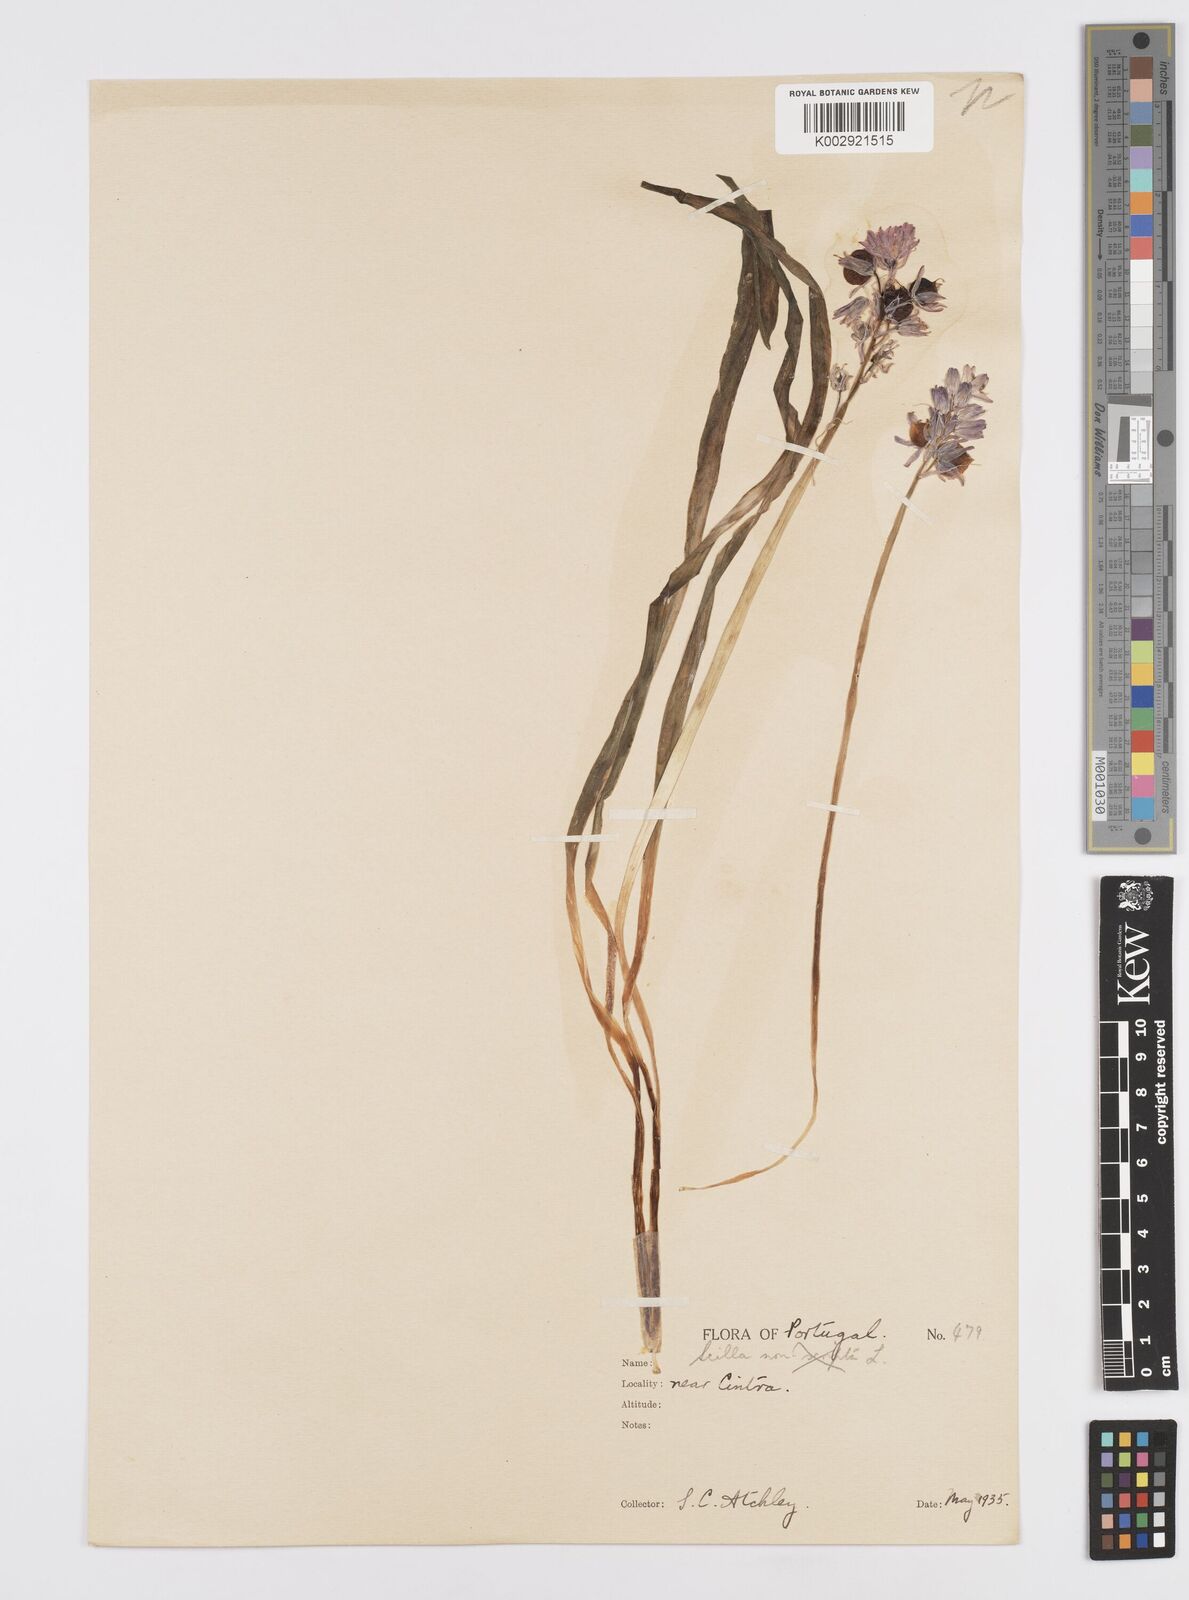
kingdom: Plantae
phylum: Tracheophyta
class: Liliopsida
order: Asparagales
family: Asparagaceae
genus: Hyacinthoides
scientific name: Hyacinthoides hispanica
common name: Spanish bluebell
